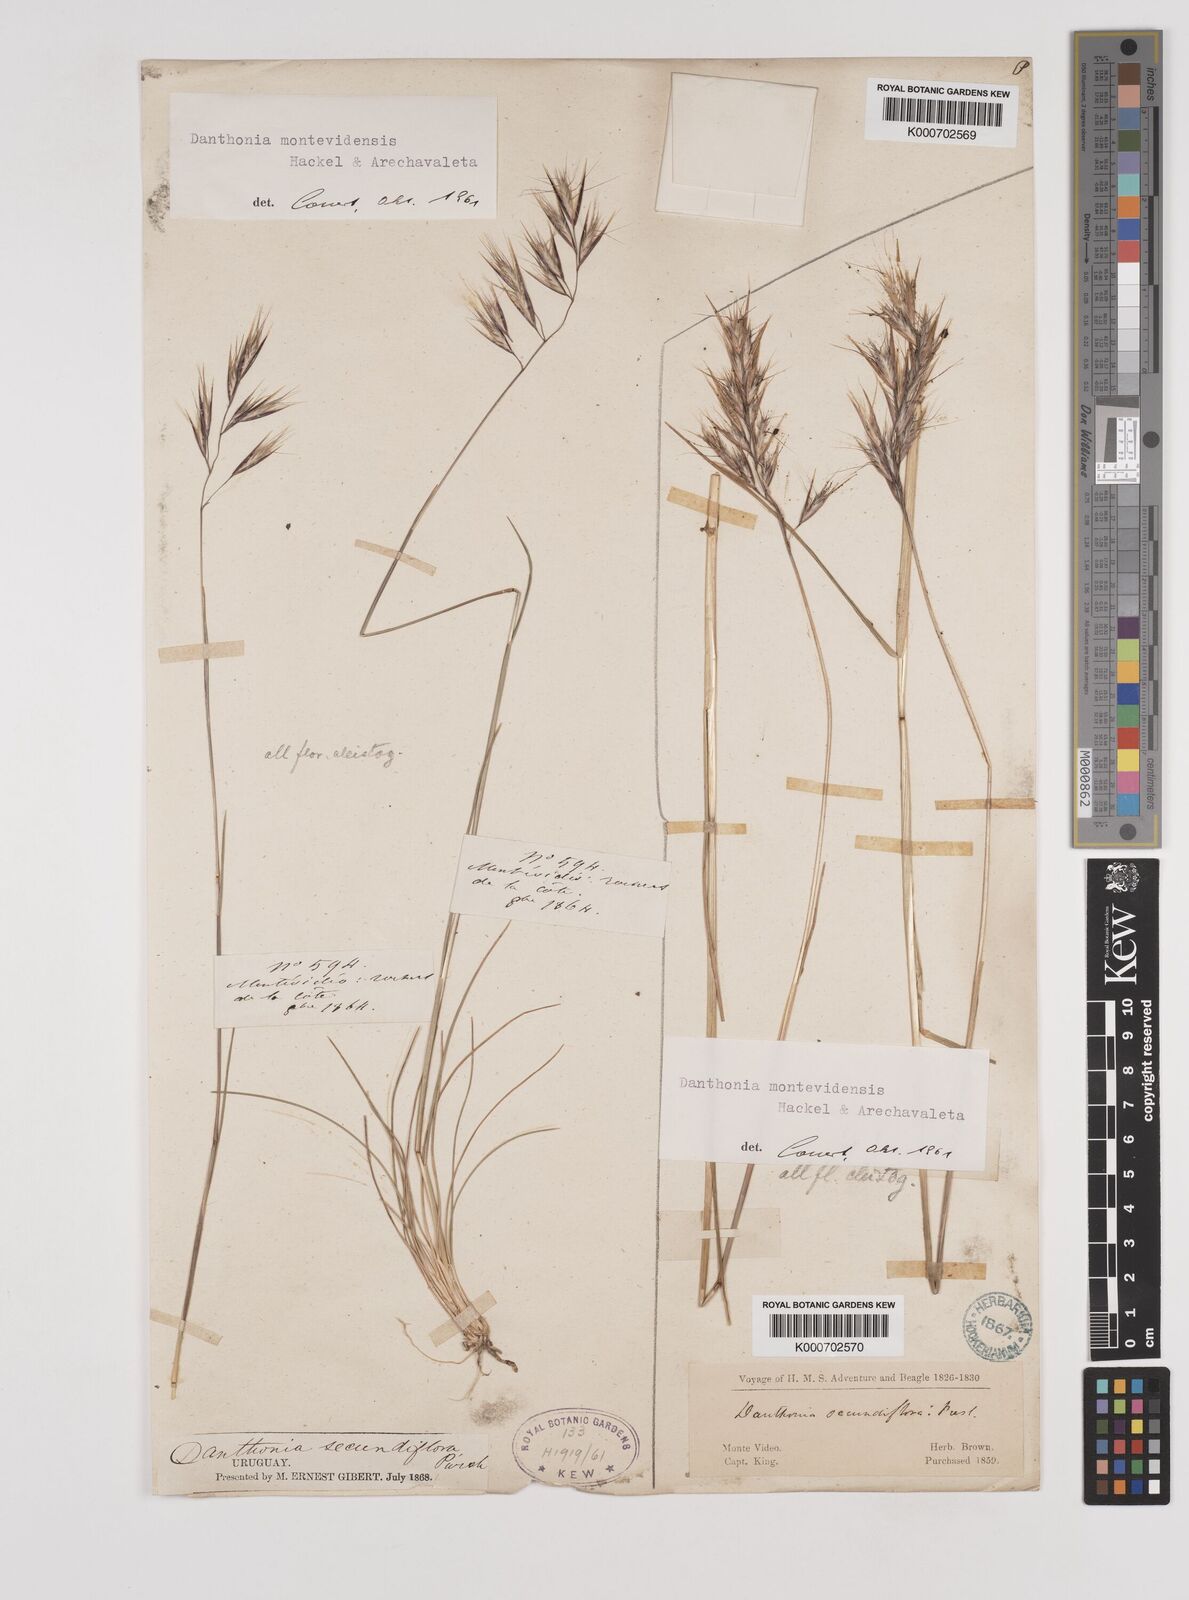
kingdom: Plantae
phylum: Tracheophyta
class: Liliopsida
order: Poales
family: Poaceae
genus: Danthonia
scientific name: Danthonia montevidensis
